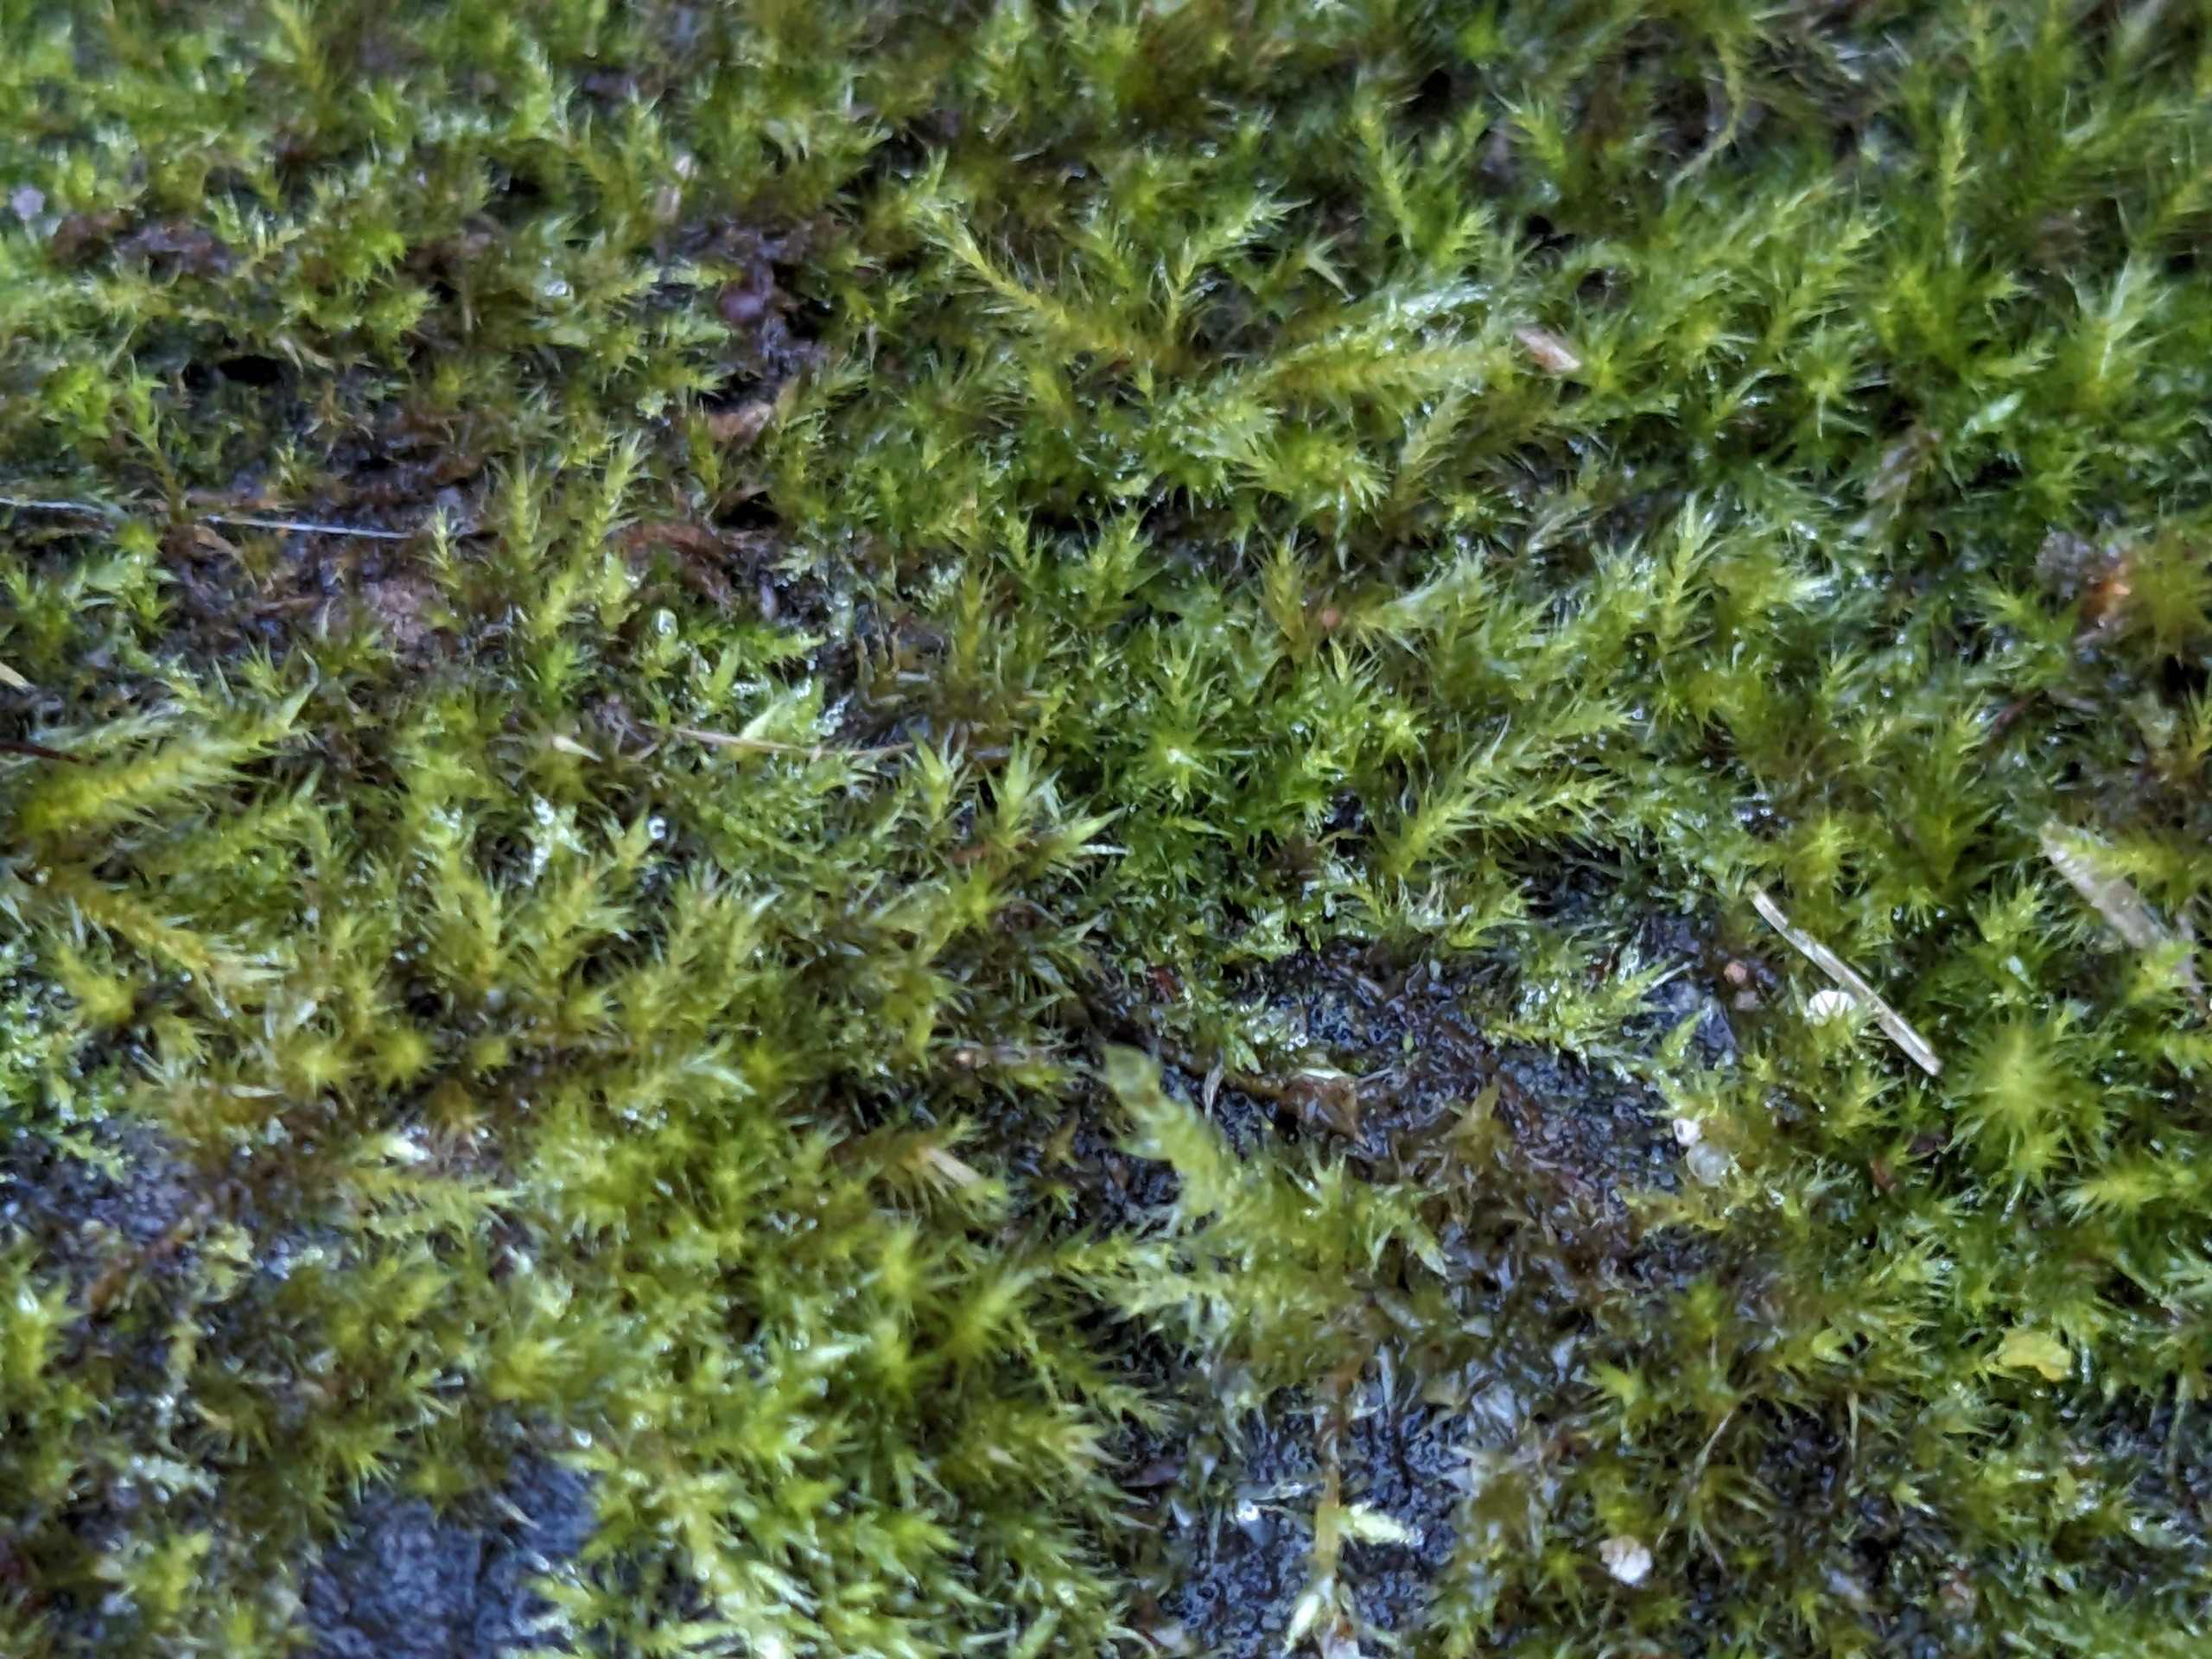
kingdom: Plantae
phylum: Bryophyta
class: Bryopsida
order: Hypnales
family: Brachytheciaceae
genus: Sciuro-hypnum
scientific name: Sciuro-hypnum populeum
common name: Park-kortkapsel
